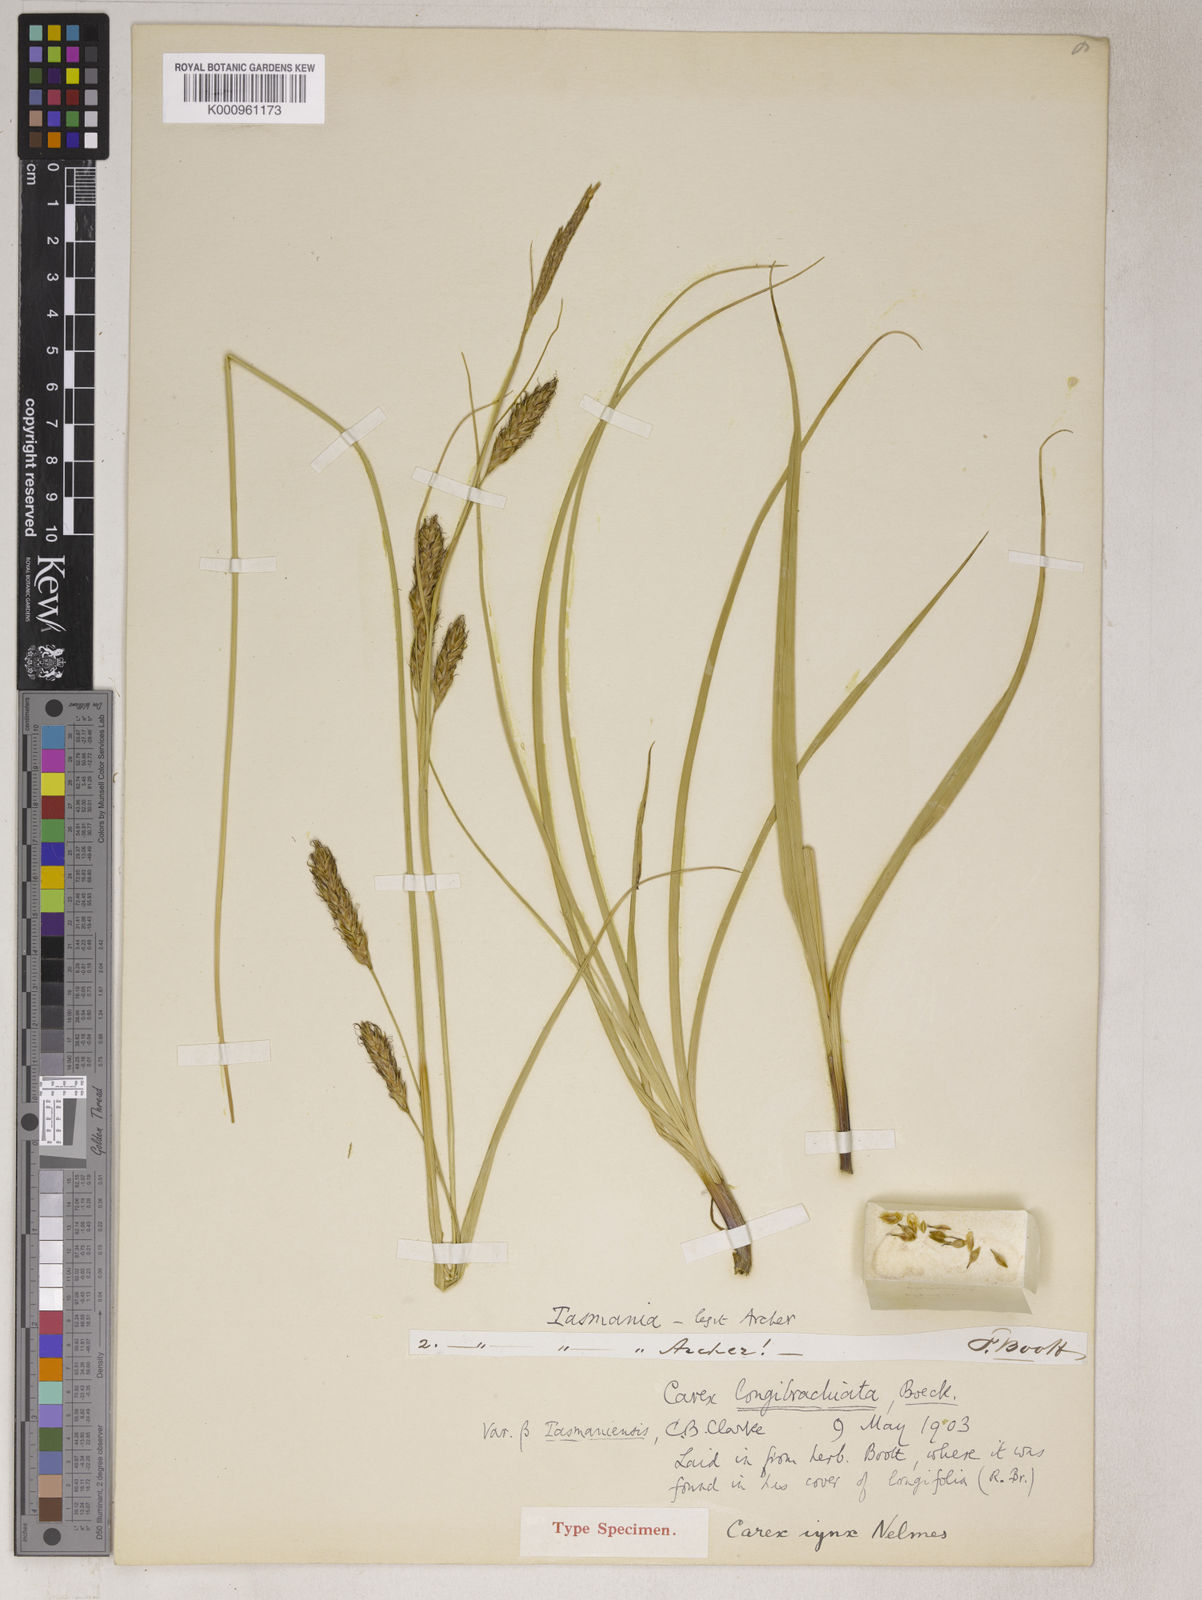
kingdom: Plantae
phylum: Tracheophyta
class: Liliopsida
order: Poales
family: Cyperaceae
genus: Carex
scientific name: Carex iynx
